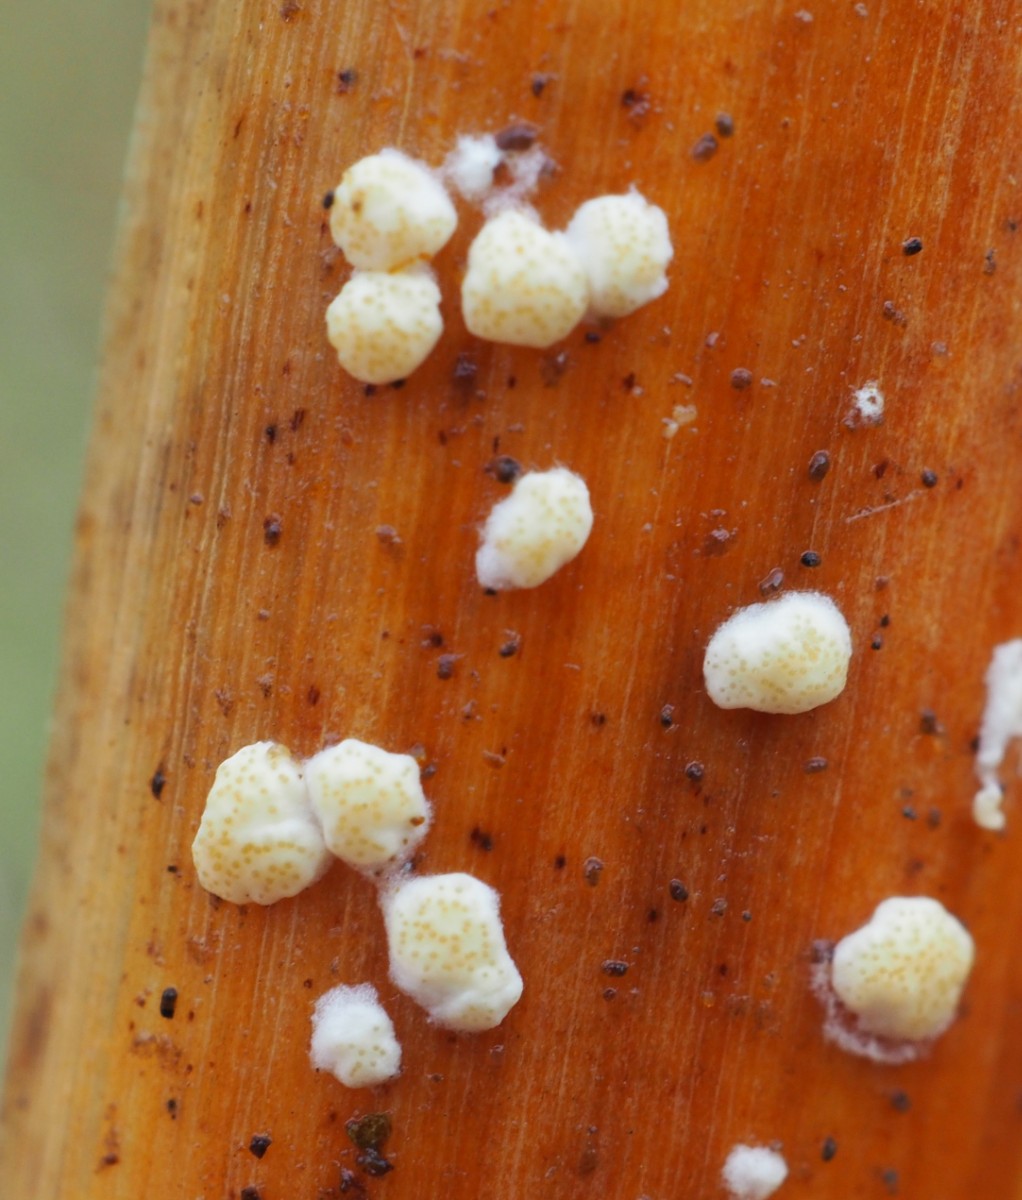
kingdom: Fungi
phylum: Ascomycota
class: Sordariomycetes
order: Hypocreales
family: Hypocreaceae
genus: Trichoderma
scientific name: Trichoderma
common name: kødkerne
